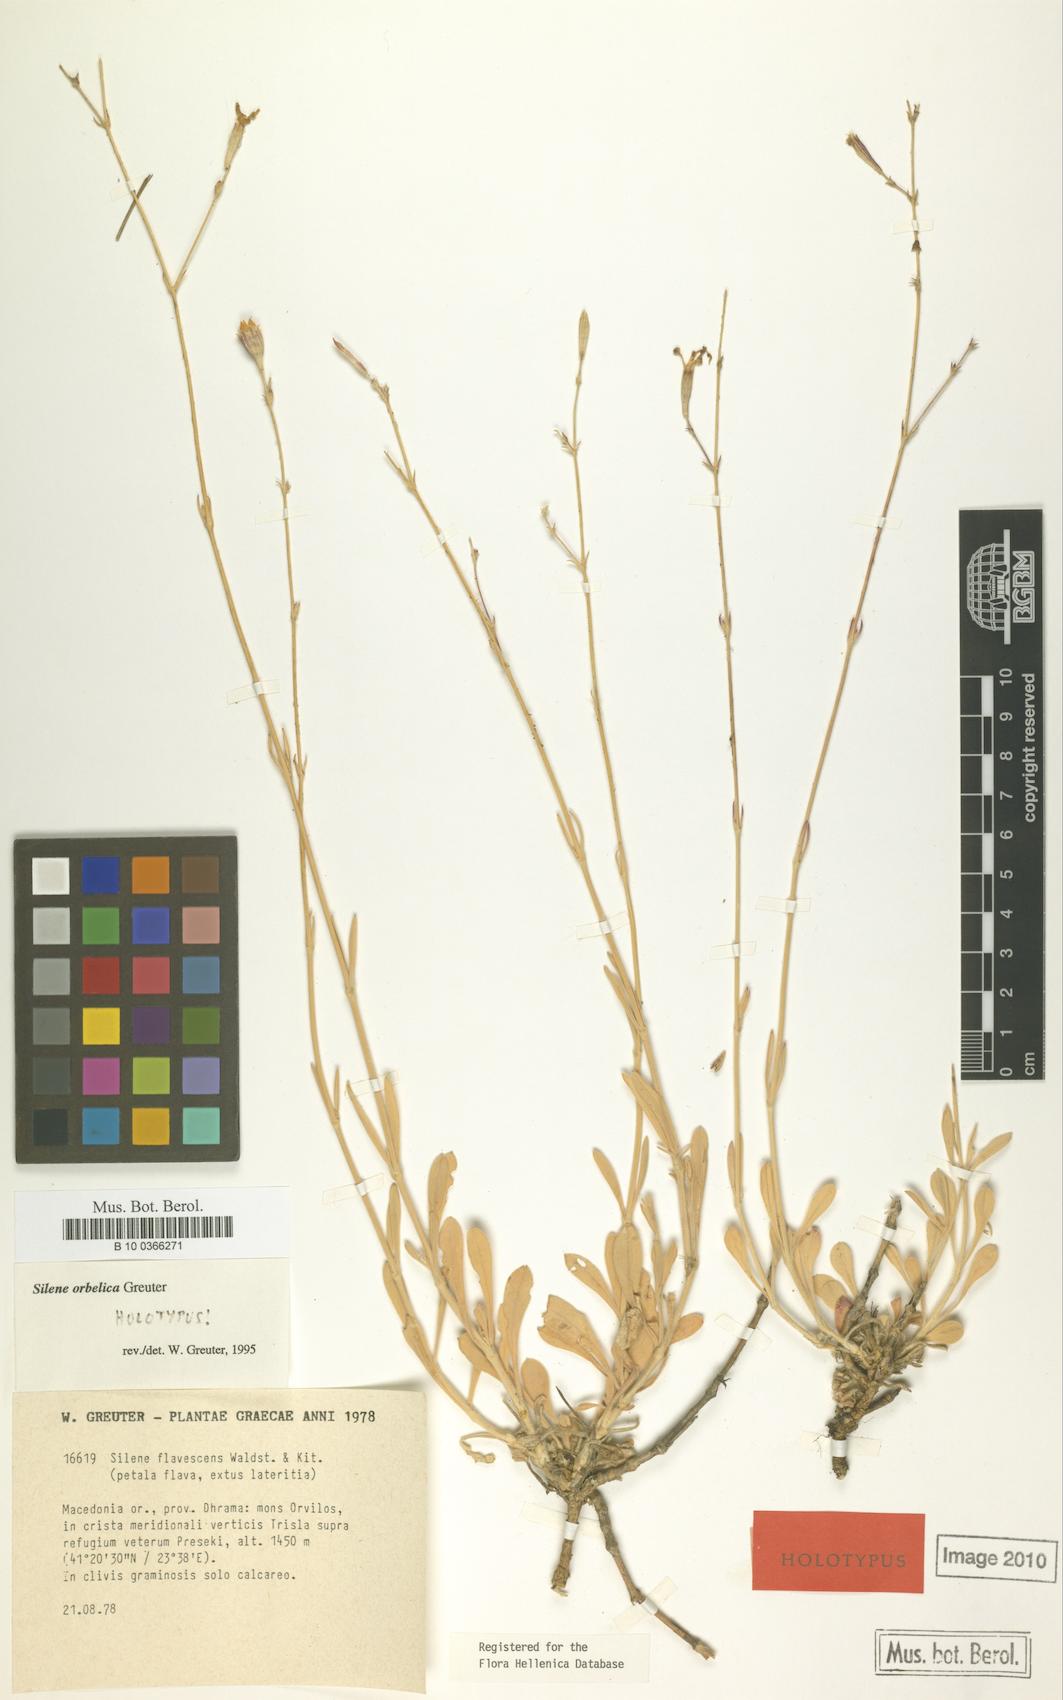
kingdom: Plantae
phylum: Tracheophyta
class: Magnoliopsida
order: Caryophyllales
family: Caryophyllaceae
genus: Silene
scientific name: Silene orbelica
